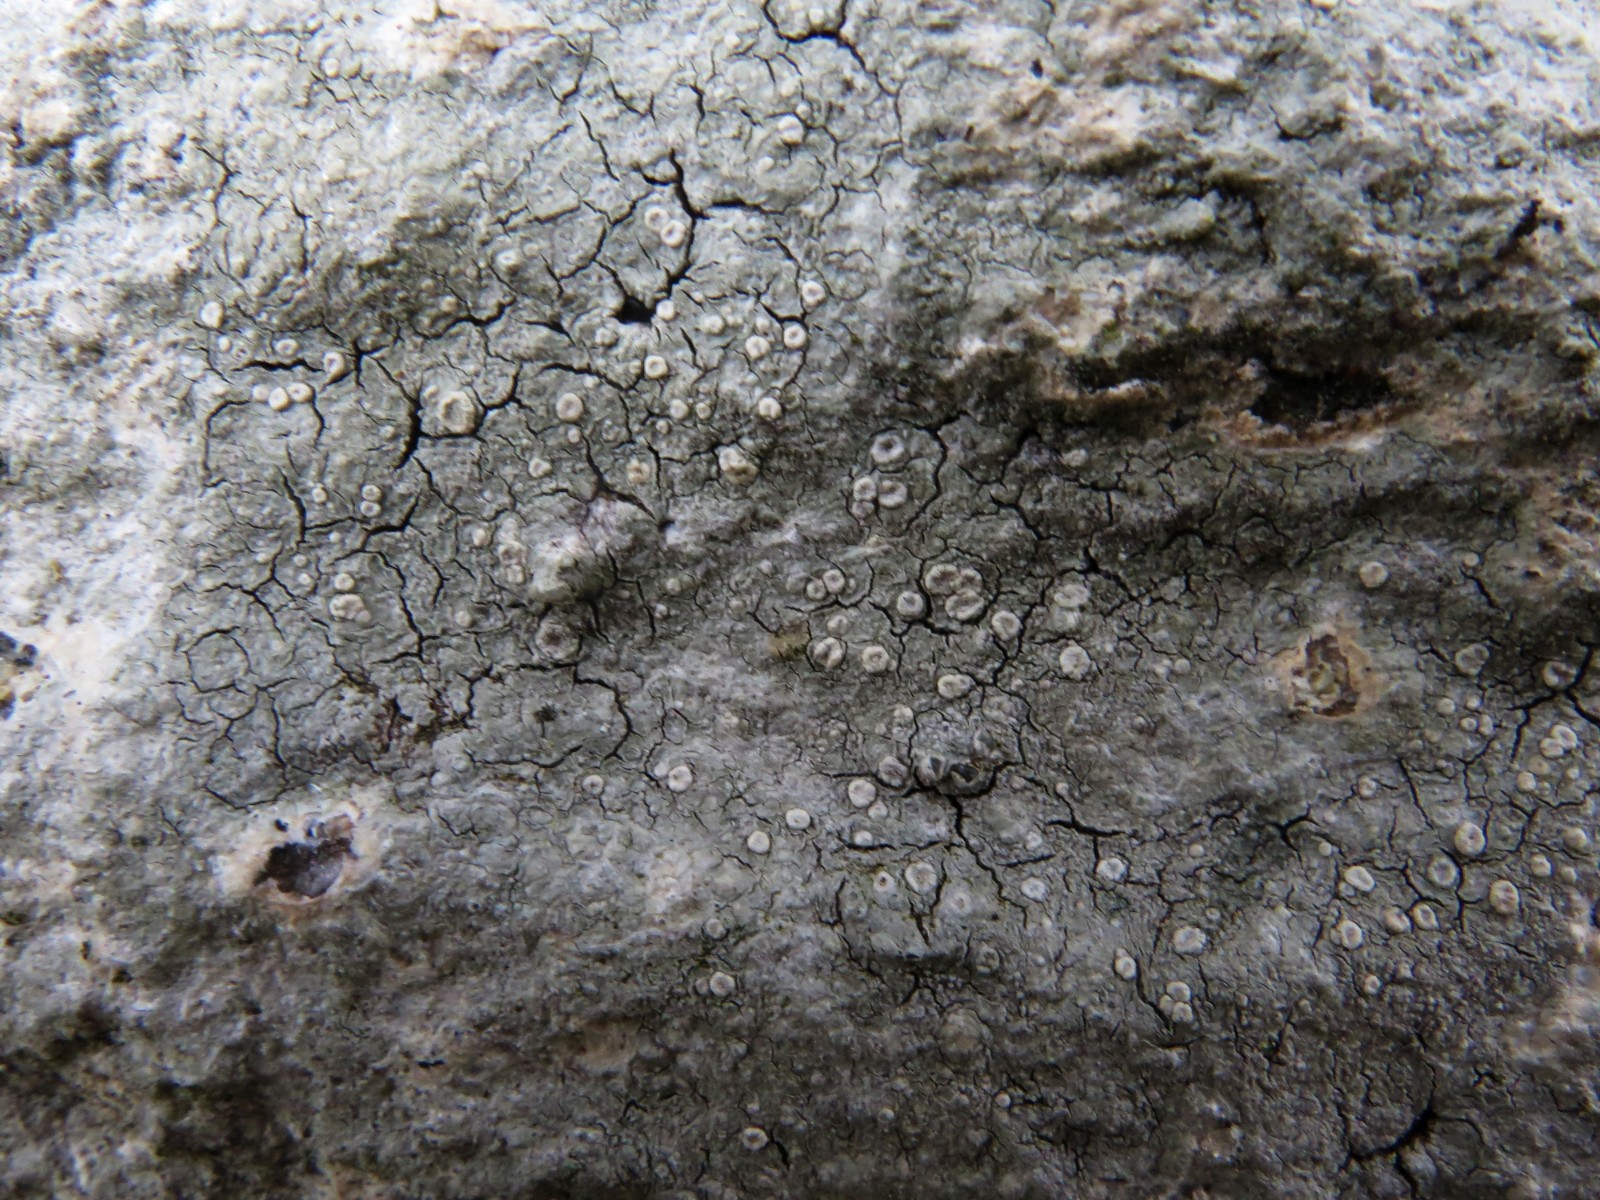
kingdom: Fungi
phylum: Ascomycota
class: Lecanoromycetes
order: Pertusariales
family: Ochrolechiaceae
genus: Ochrolechia
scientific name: Ochrolechia parella
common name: almindelig blegskivelav
